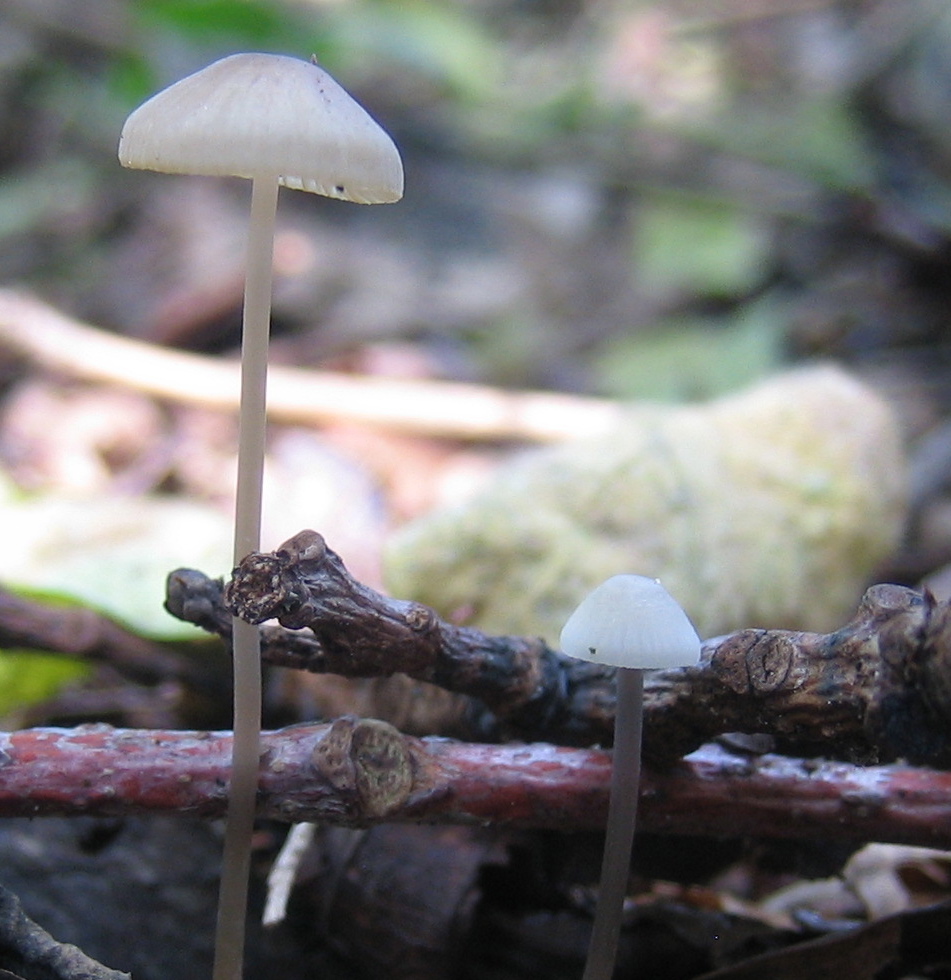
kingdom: Fungi
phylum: Basidiomycota
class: Agaricomycetes
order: Agaricales
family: Mycenaceae
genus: Mycena
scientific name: Mycena vitilis
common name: blankstokket huesvamp
